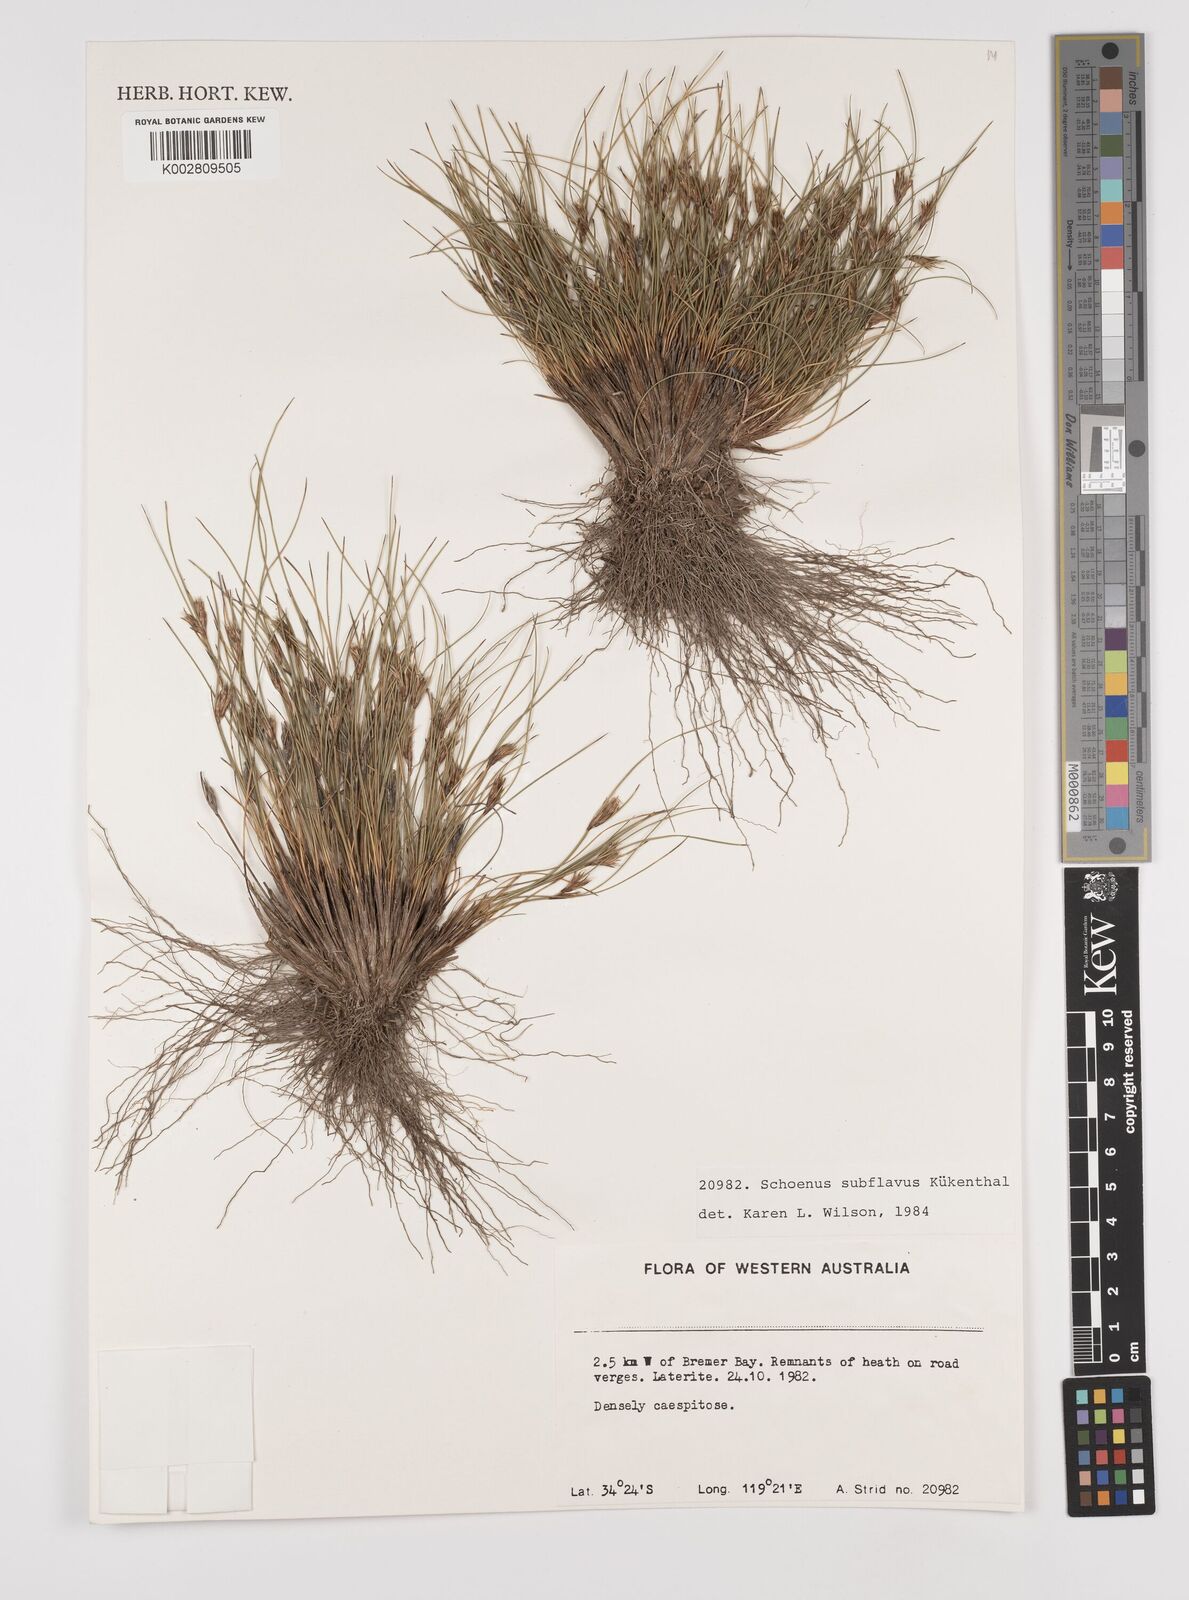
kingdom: Plantae
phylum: Tracheophyta
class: Liliopsida
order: Poales
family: Cyperaceae
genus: Schoenus
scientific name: Schoenus subflavus
